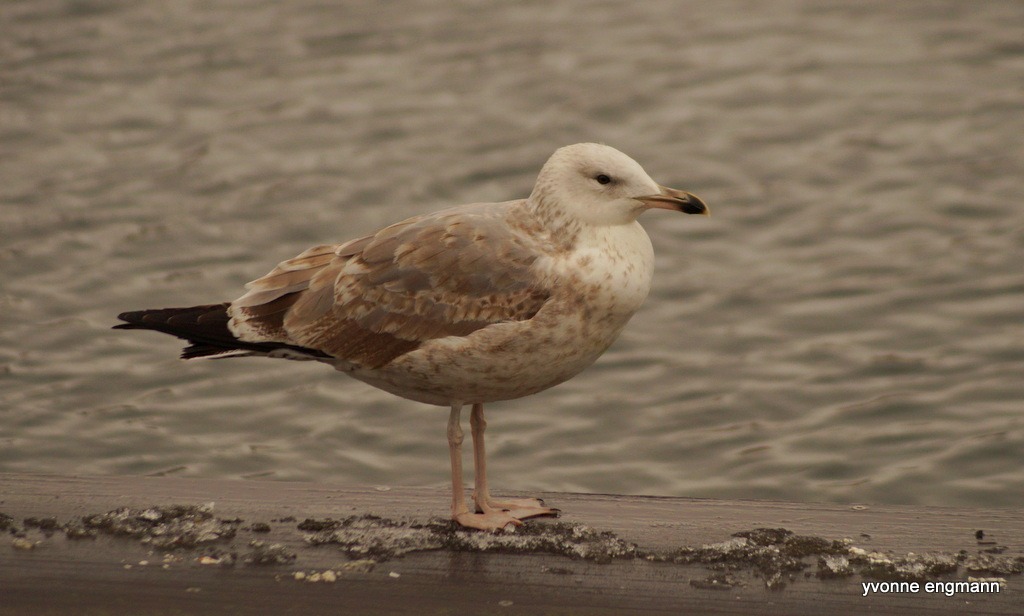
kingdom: Animalia
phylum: Chordata
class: Aves
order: Charadriiformes
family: Laridae
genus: Larus
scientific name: Larus cachinnans
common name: Kaspisk måge
